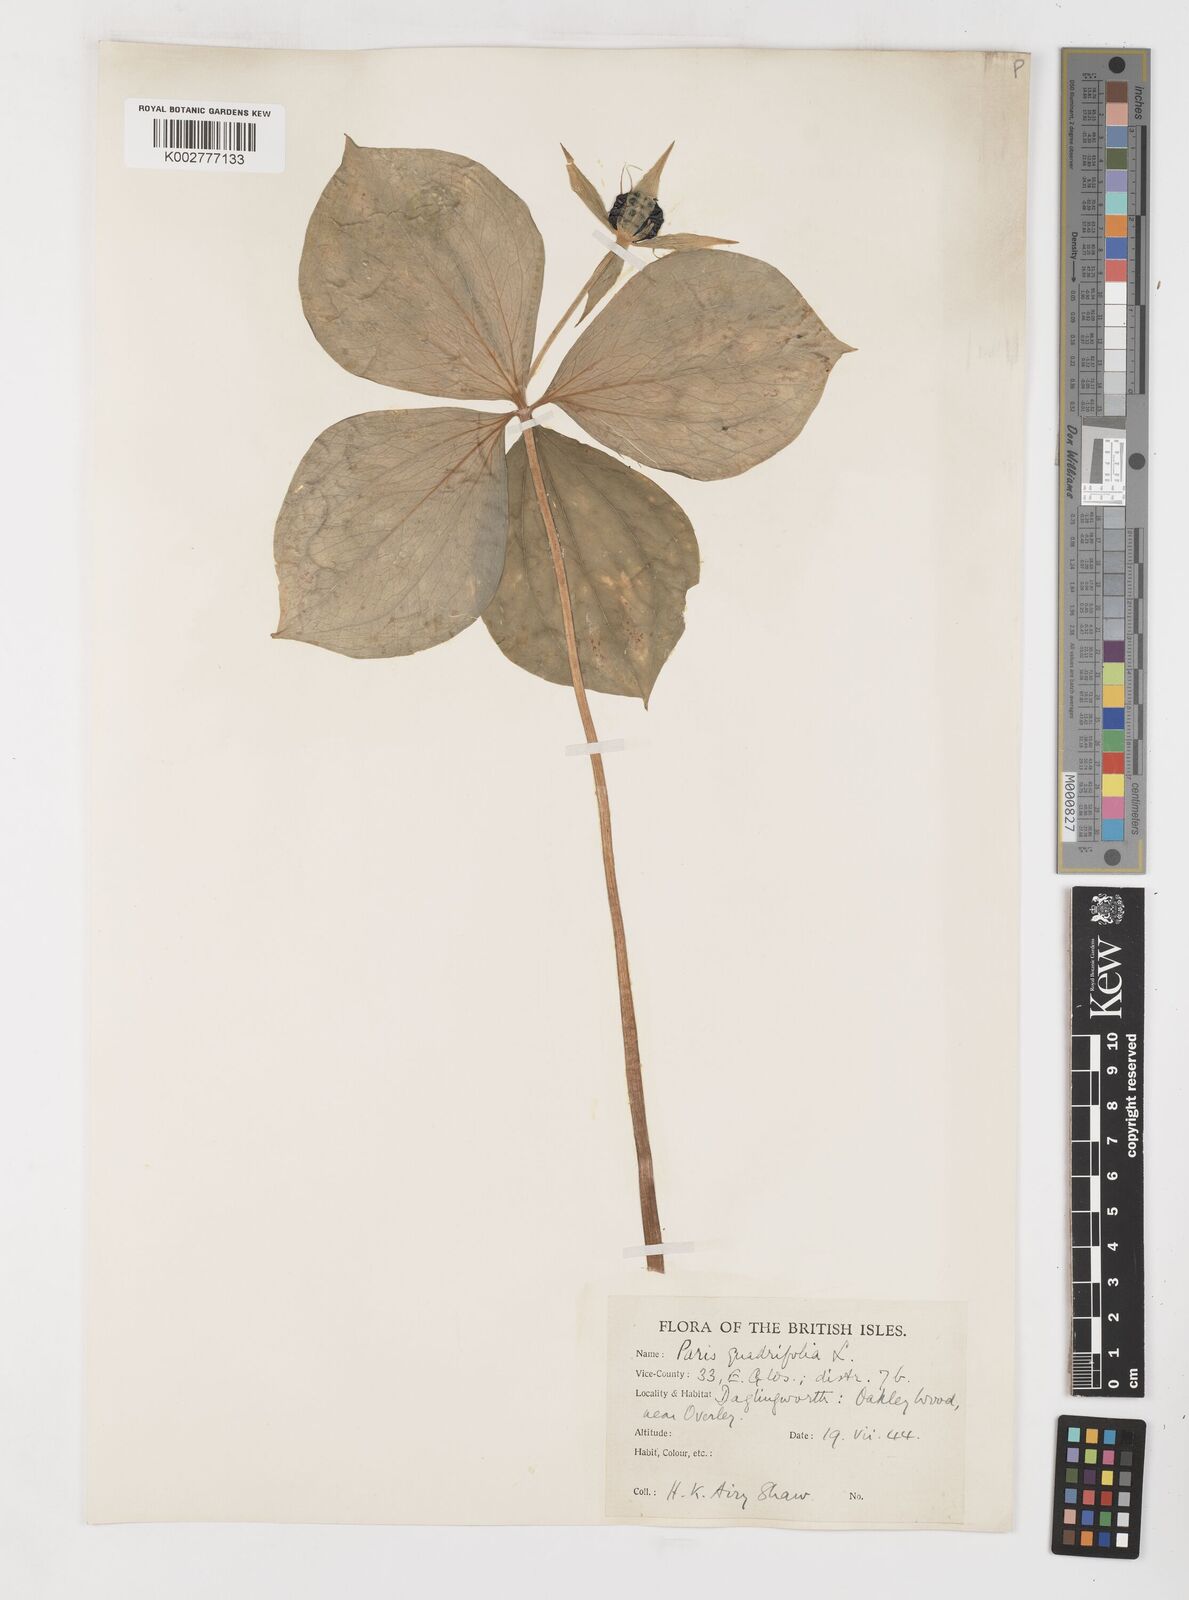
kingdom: Plantae
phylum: Tracheophyta
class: Liliopsida
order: Liliales
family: Melanthiaceae
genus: Paris
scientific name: Paris quadrifolia
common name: Herb-paris
